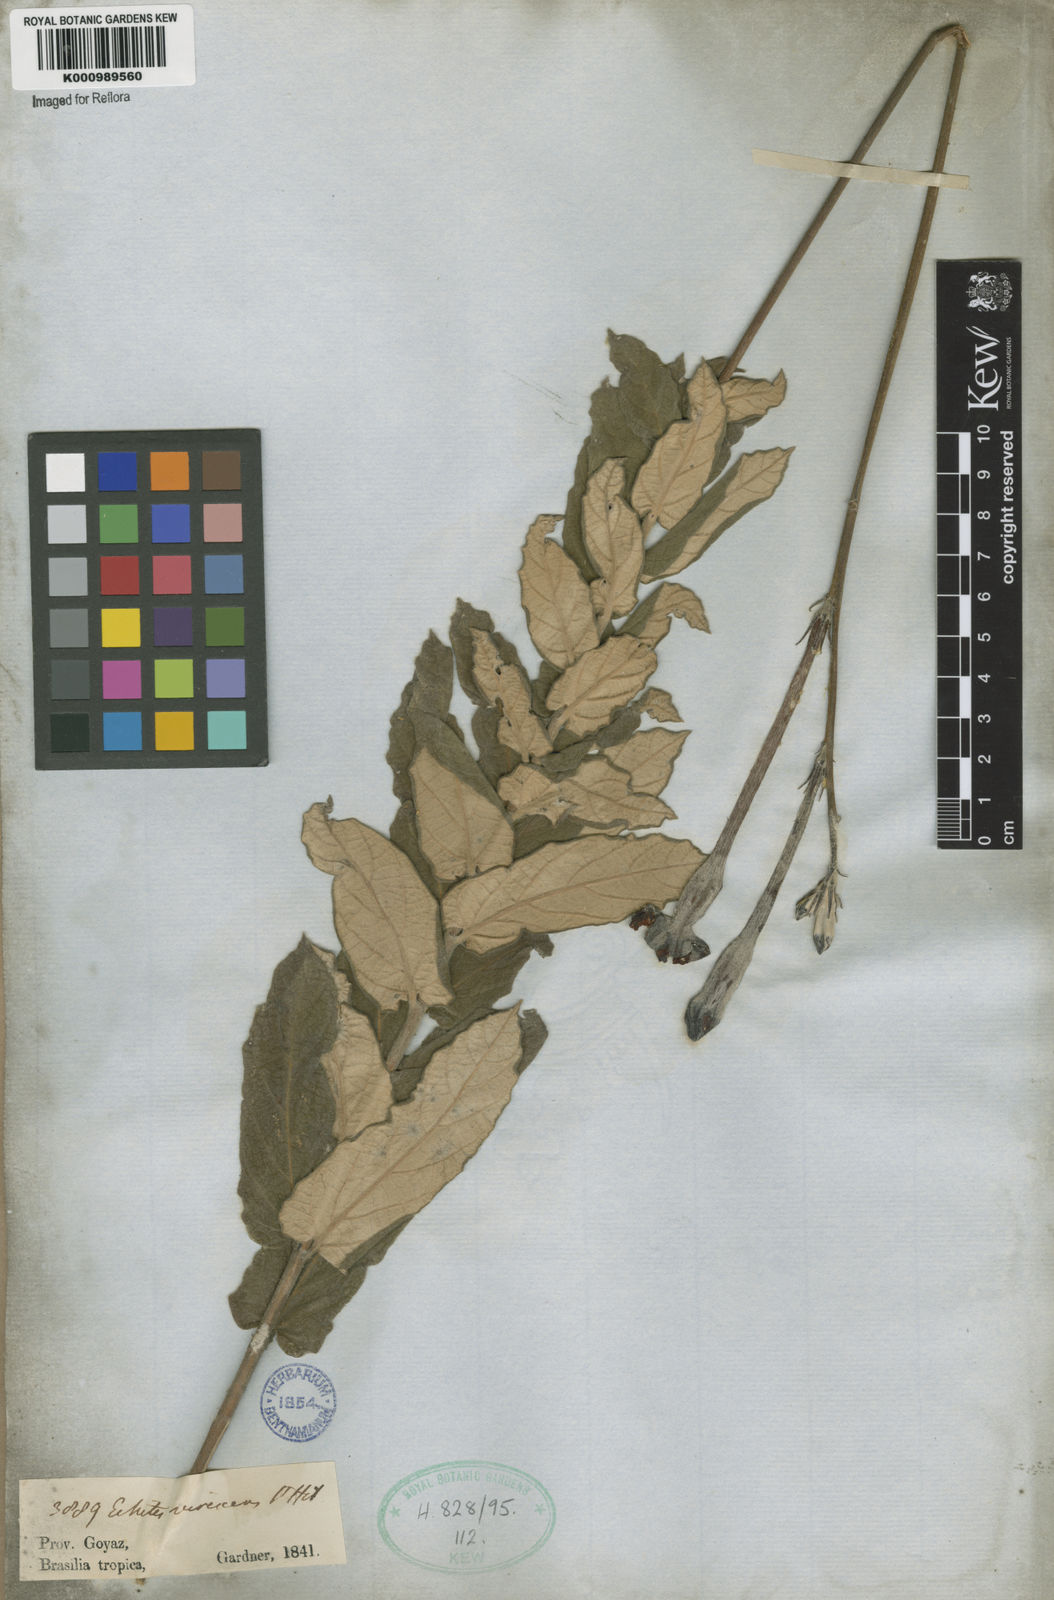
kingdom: Plantae
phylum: Tracheophyta
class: Magnoliopsida
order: Gentianales
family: Apocynaceae
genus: Mandevilla
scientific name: Mandevilla
